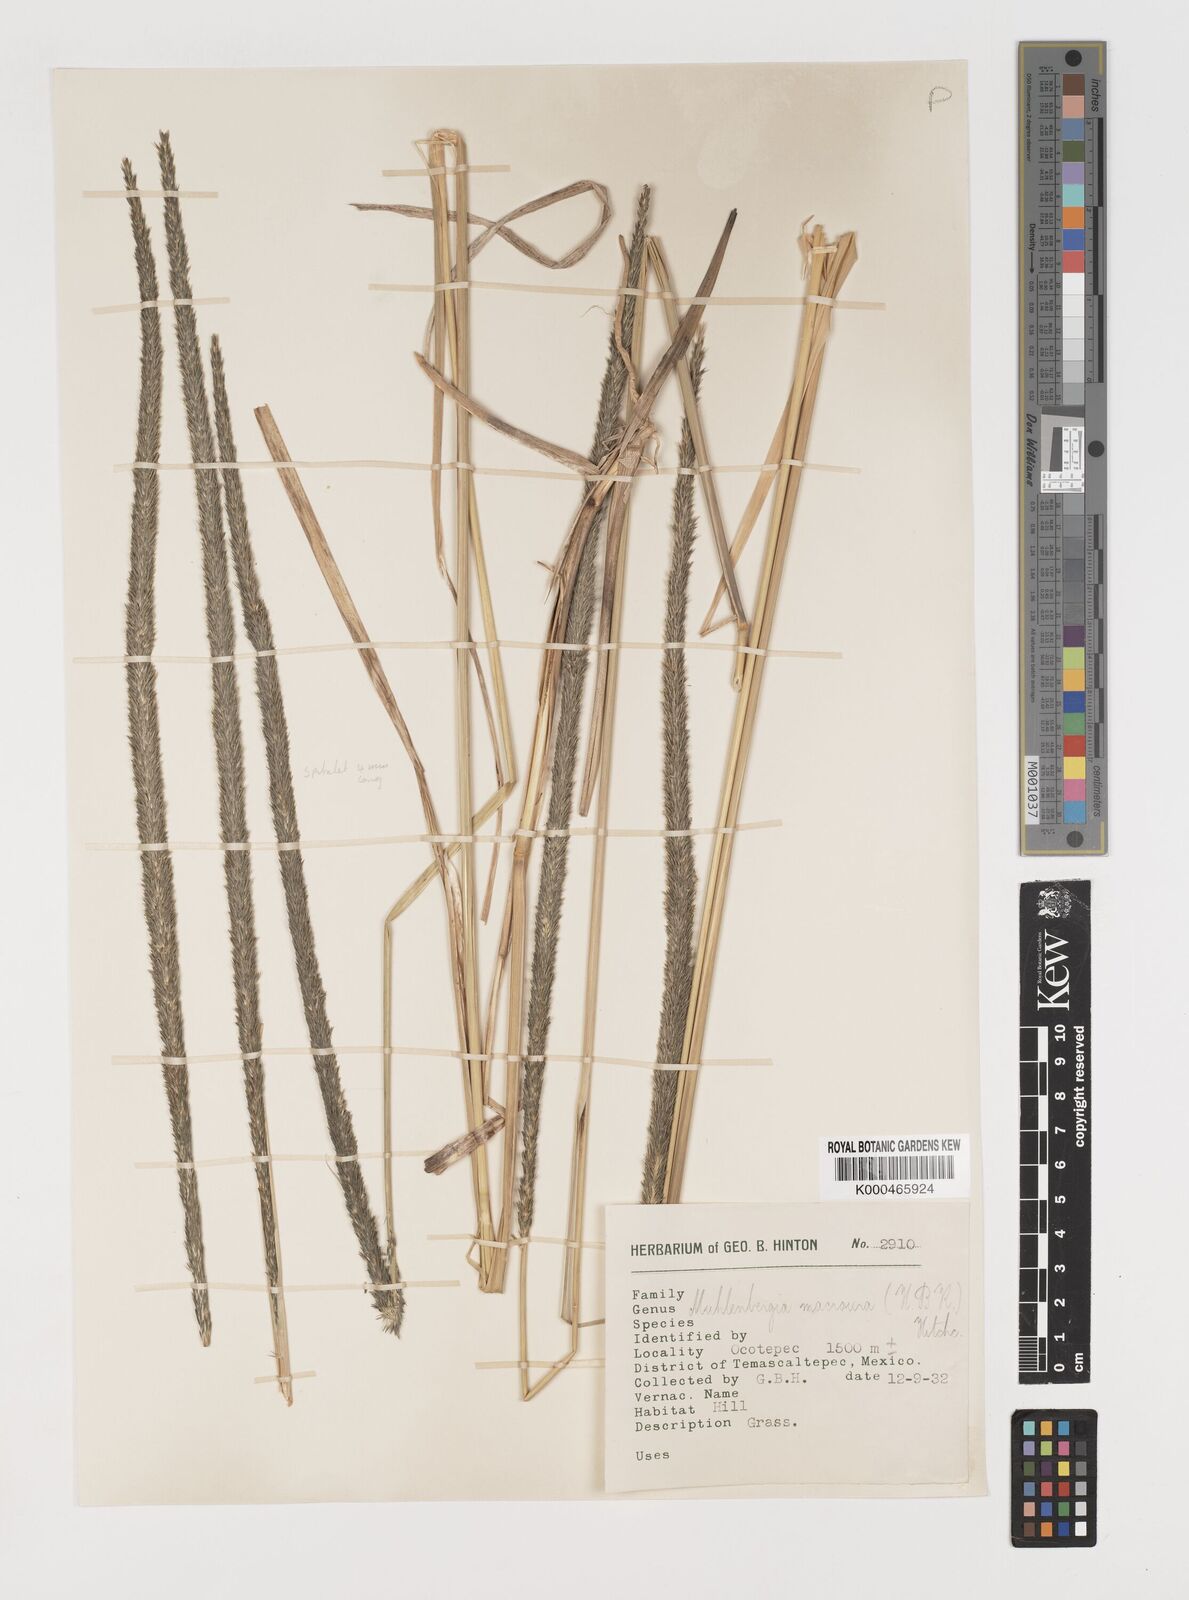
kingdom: Plantae
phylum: Tracheophyta
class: Liliopsida
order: Poales
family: Poaceae
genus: Muhlenbergia
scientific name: Muhlenbergia macroura
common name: Mexican broomroot
